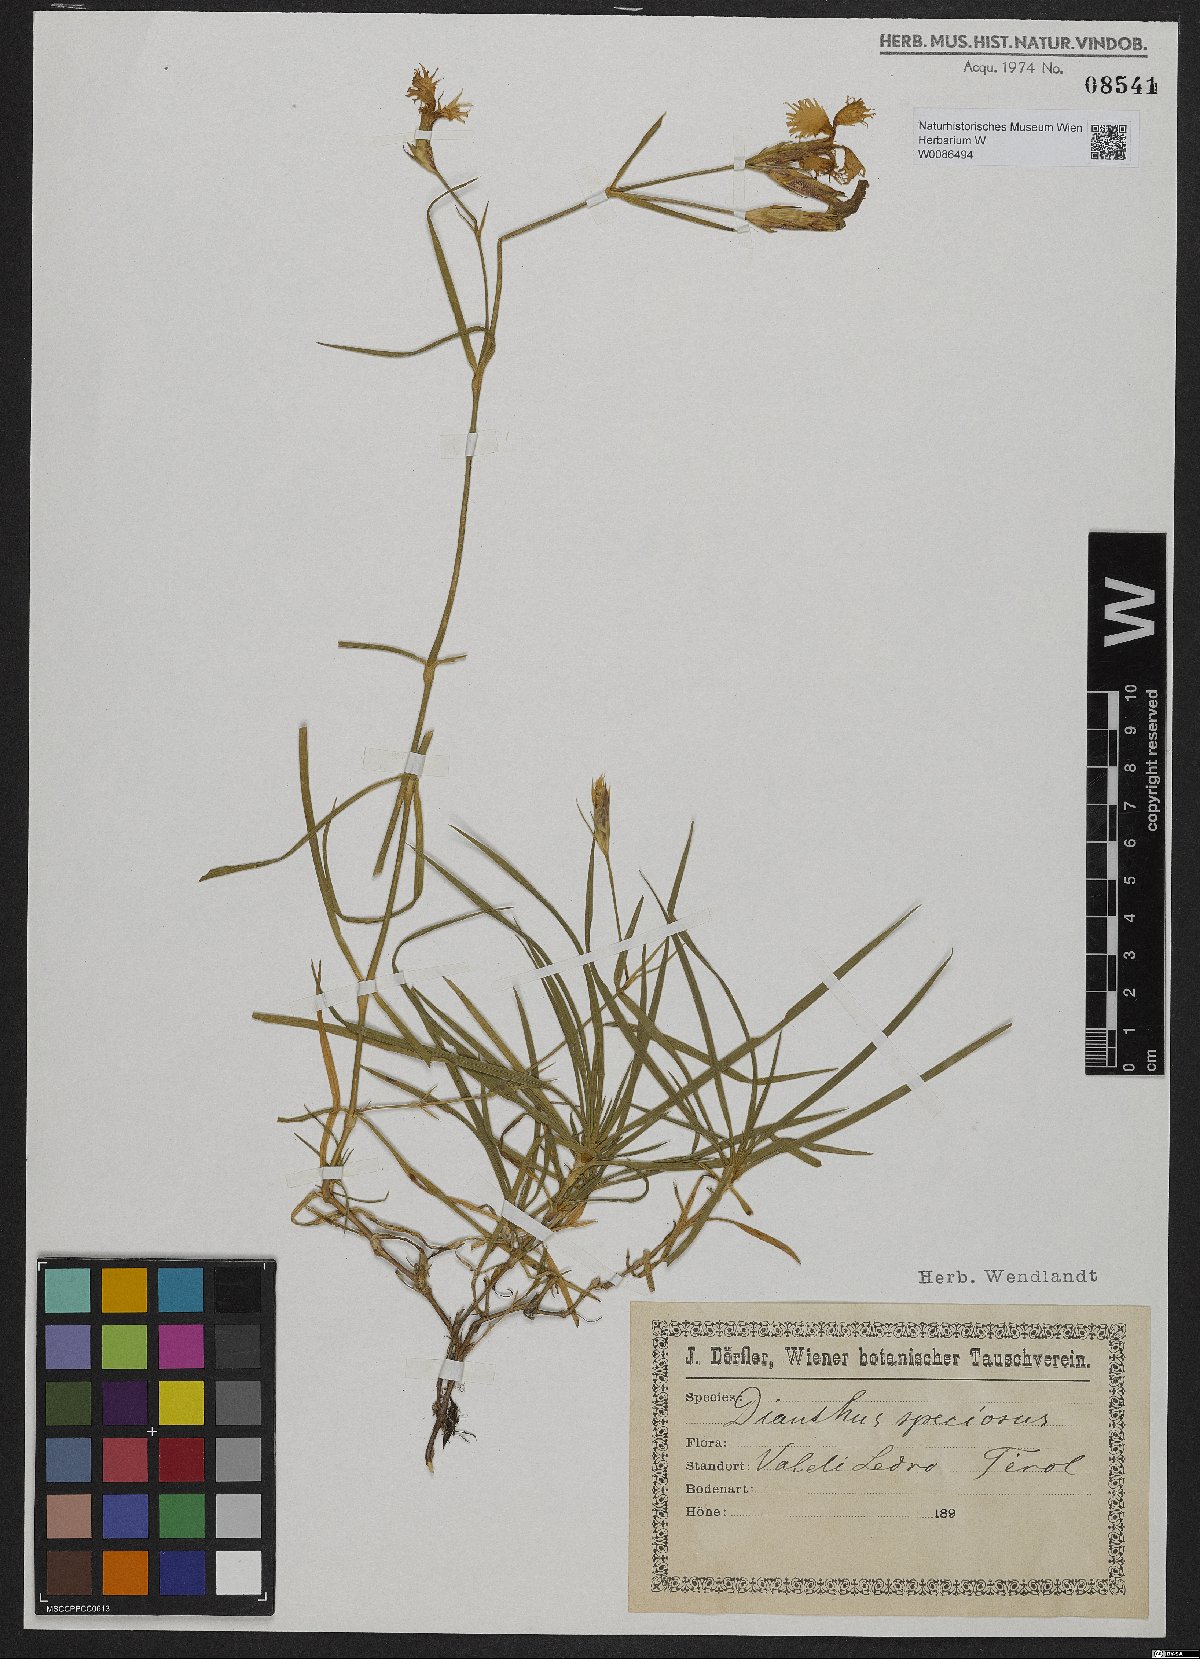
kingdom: Plantae
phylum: Tracheophyta
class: Magnoliopsida
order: Caryophyllales
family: Caryophyllaceae
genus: Dianthus
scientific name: Dianthus superbus
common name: Fringed pink
